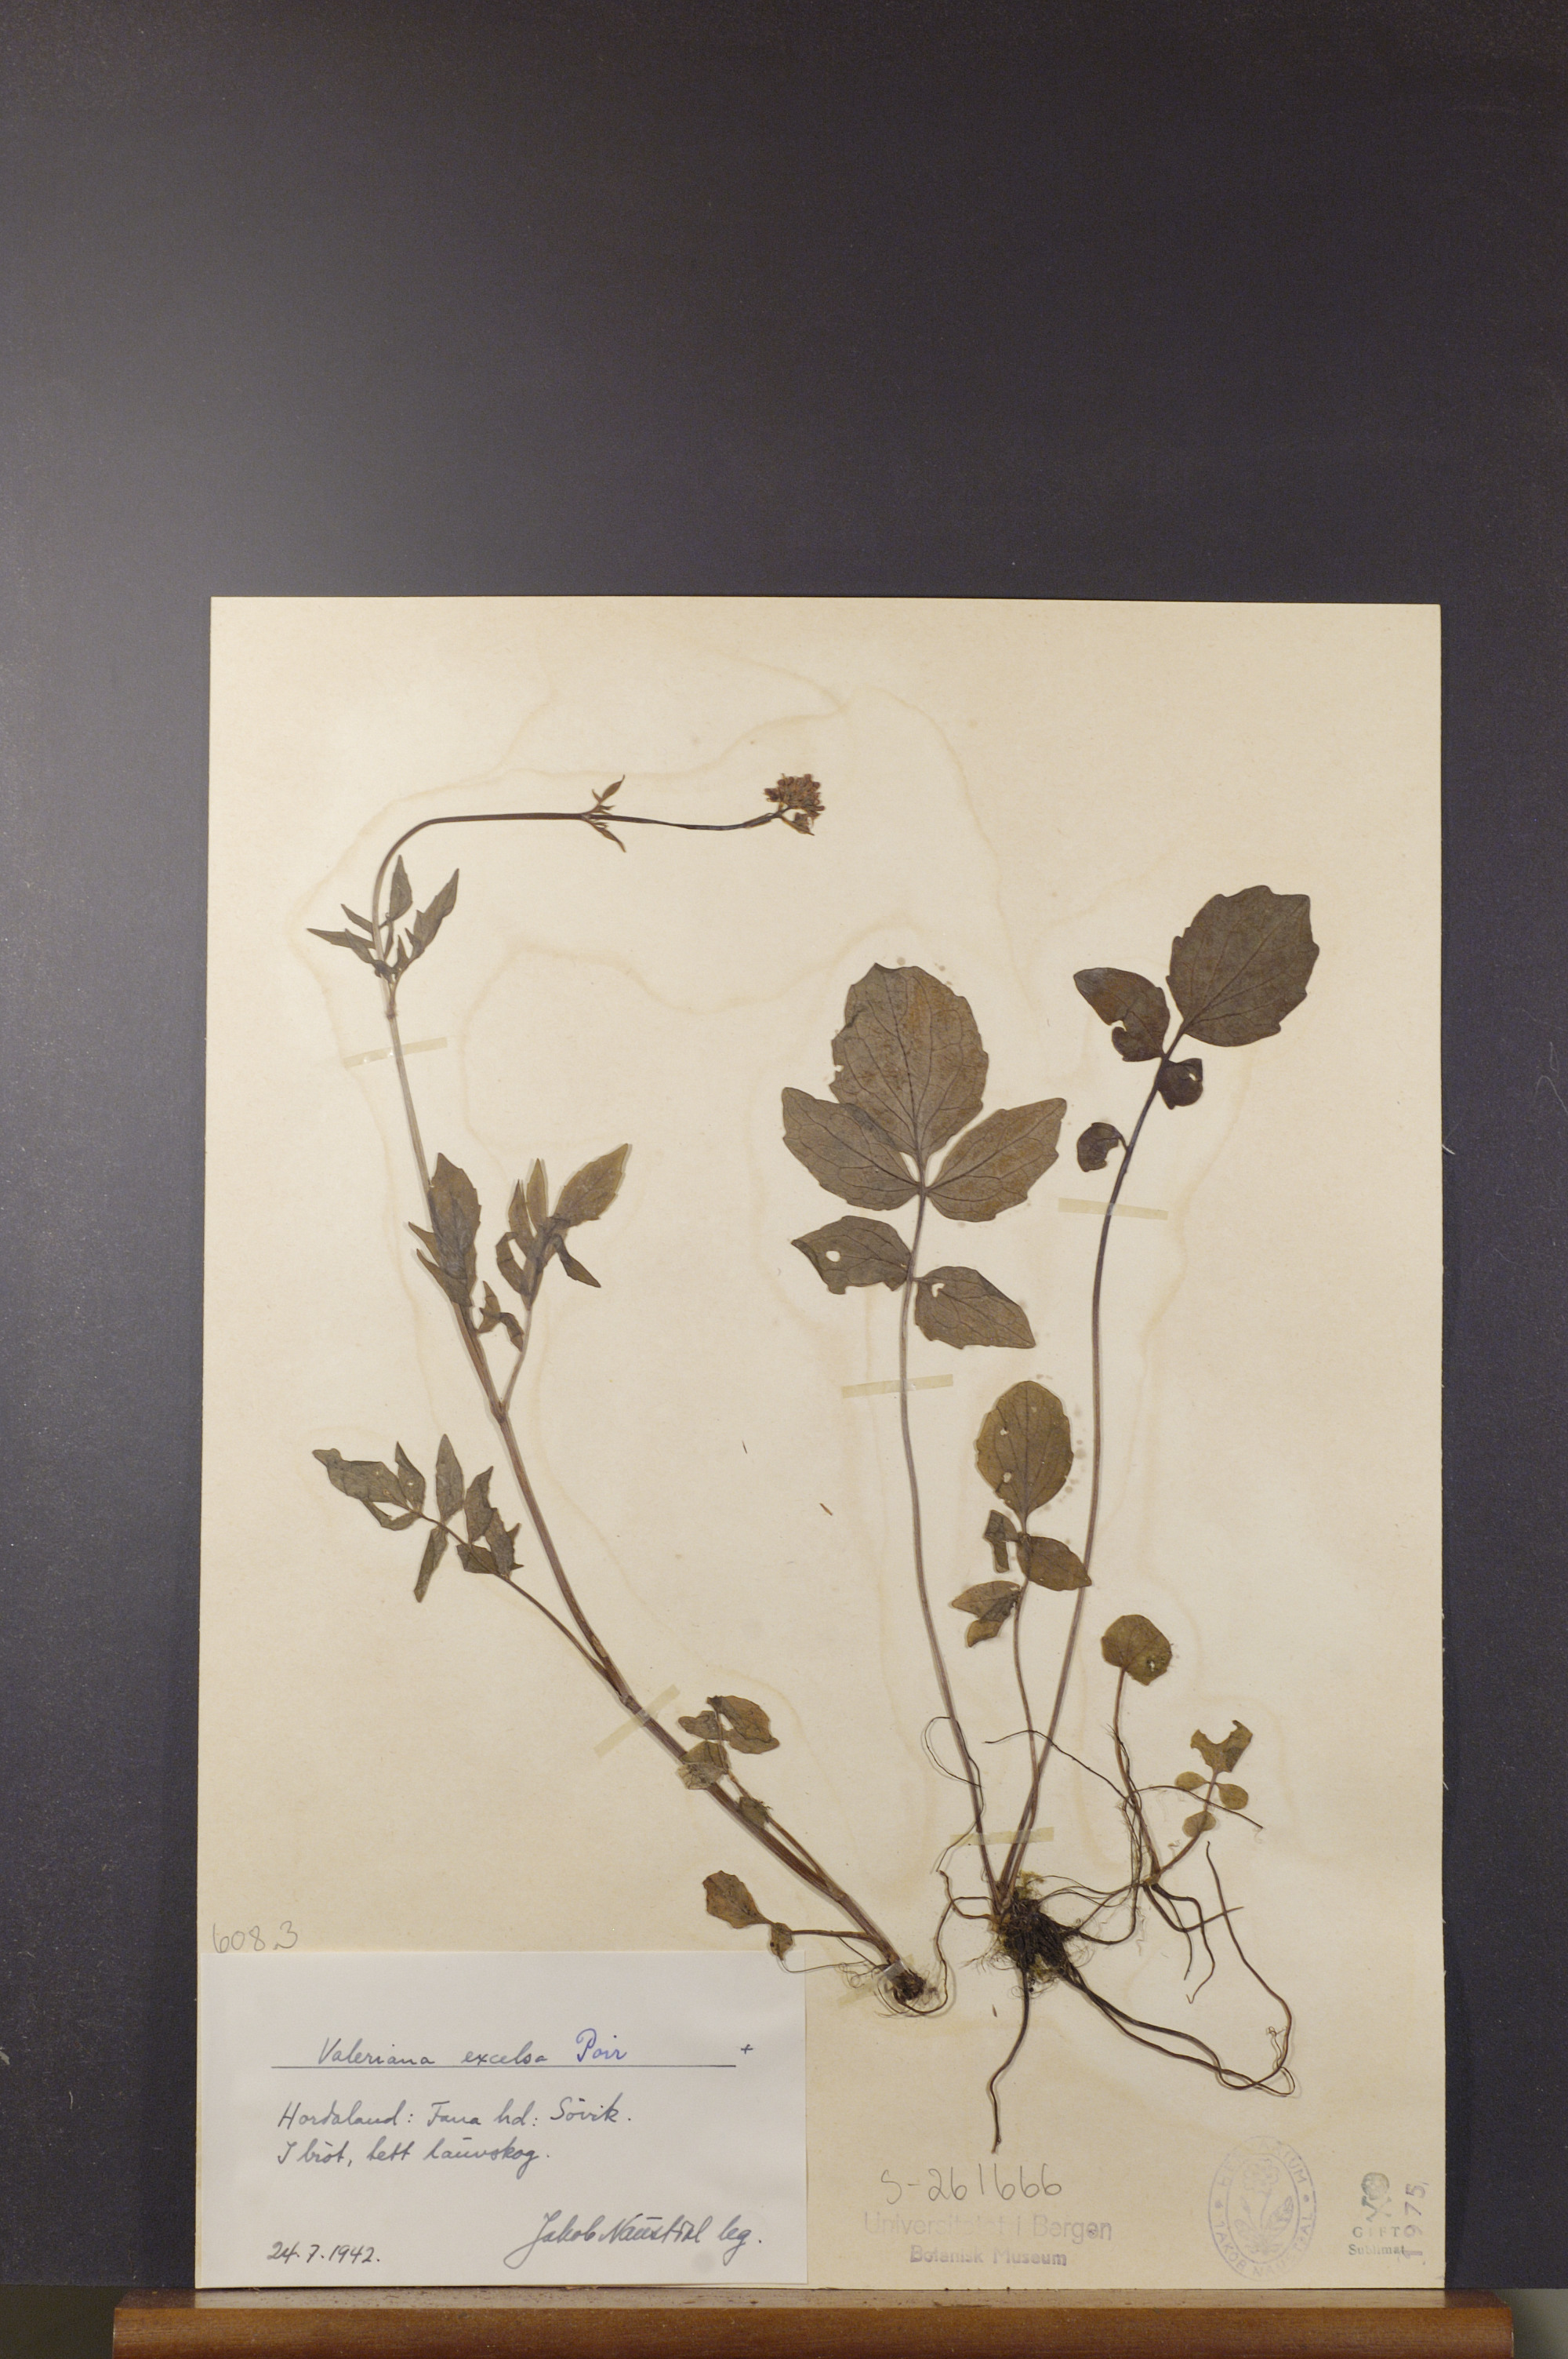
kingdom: Plantae
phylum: Tracheophyta
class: Magnoliopsida
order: Dipsacales
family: Caprifoliaceae
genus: Valeriana
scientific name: Valeriana sambucifolia
